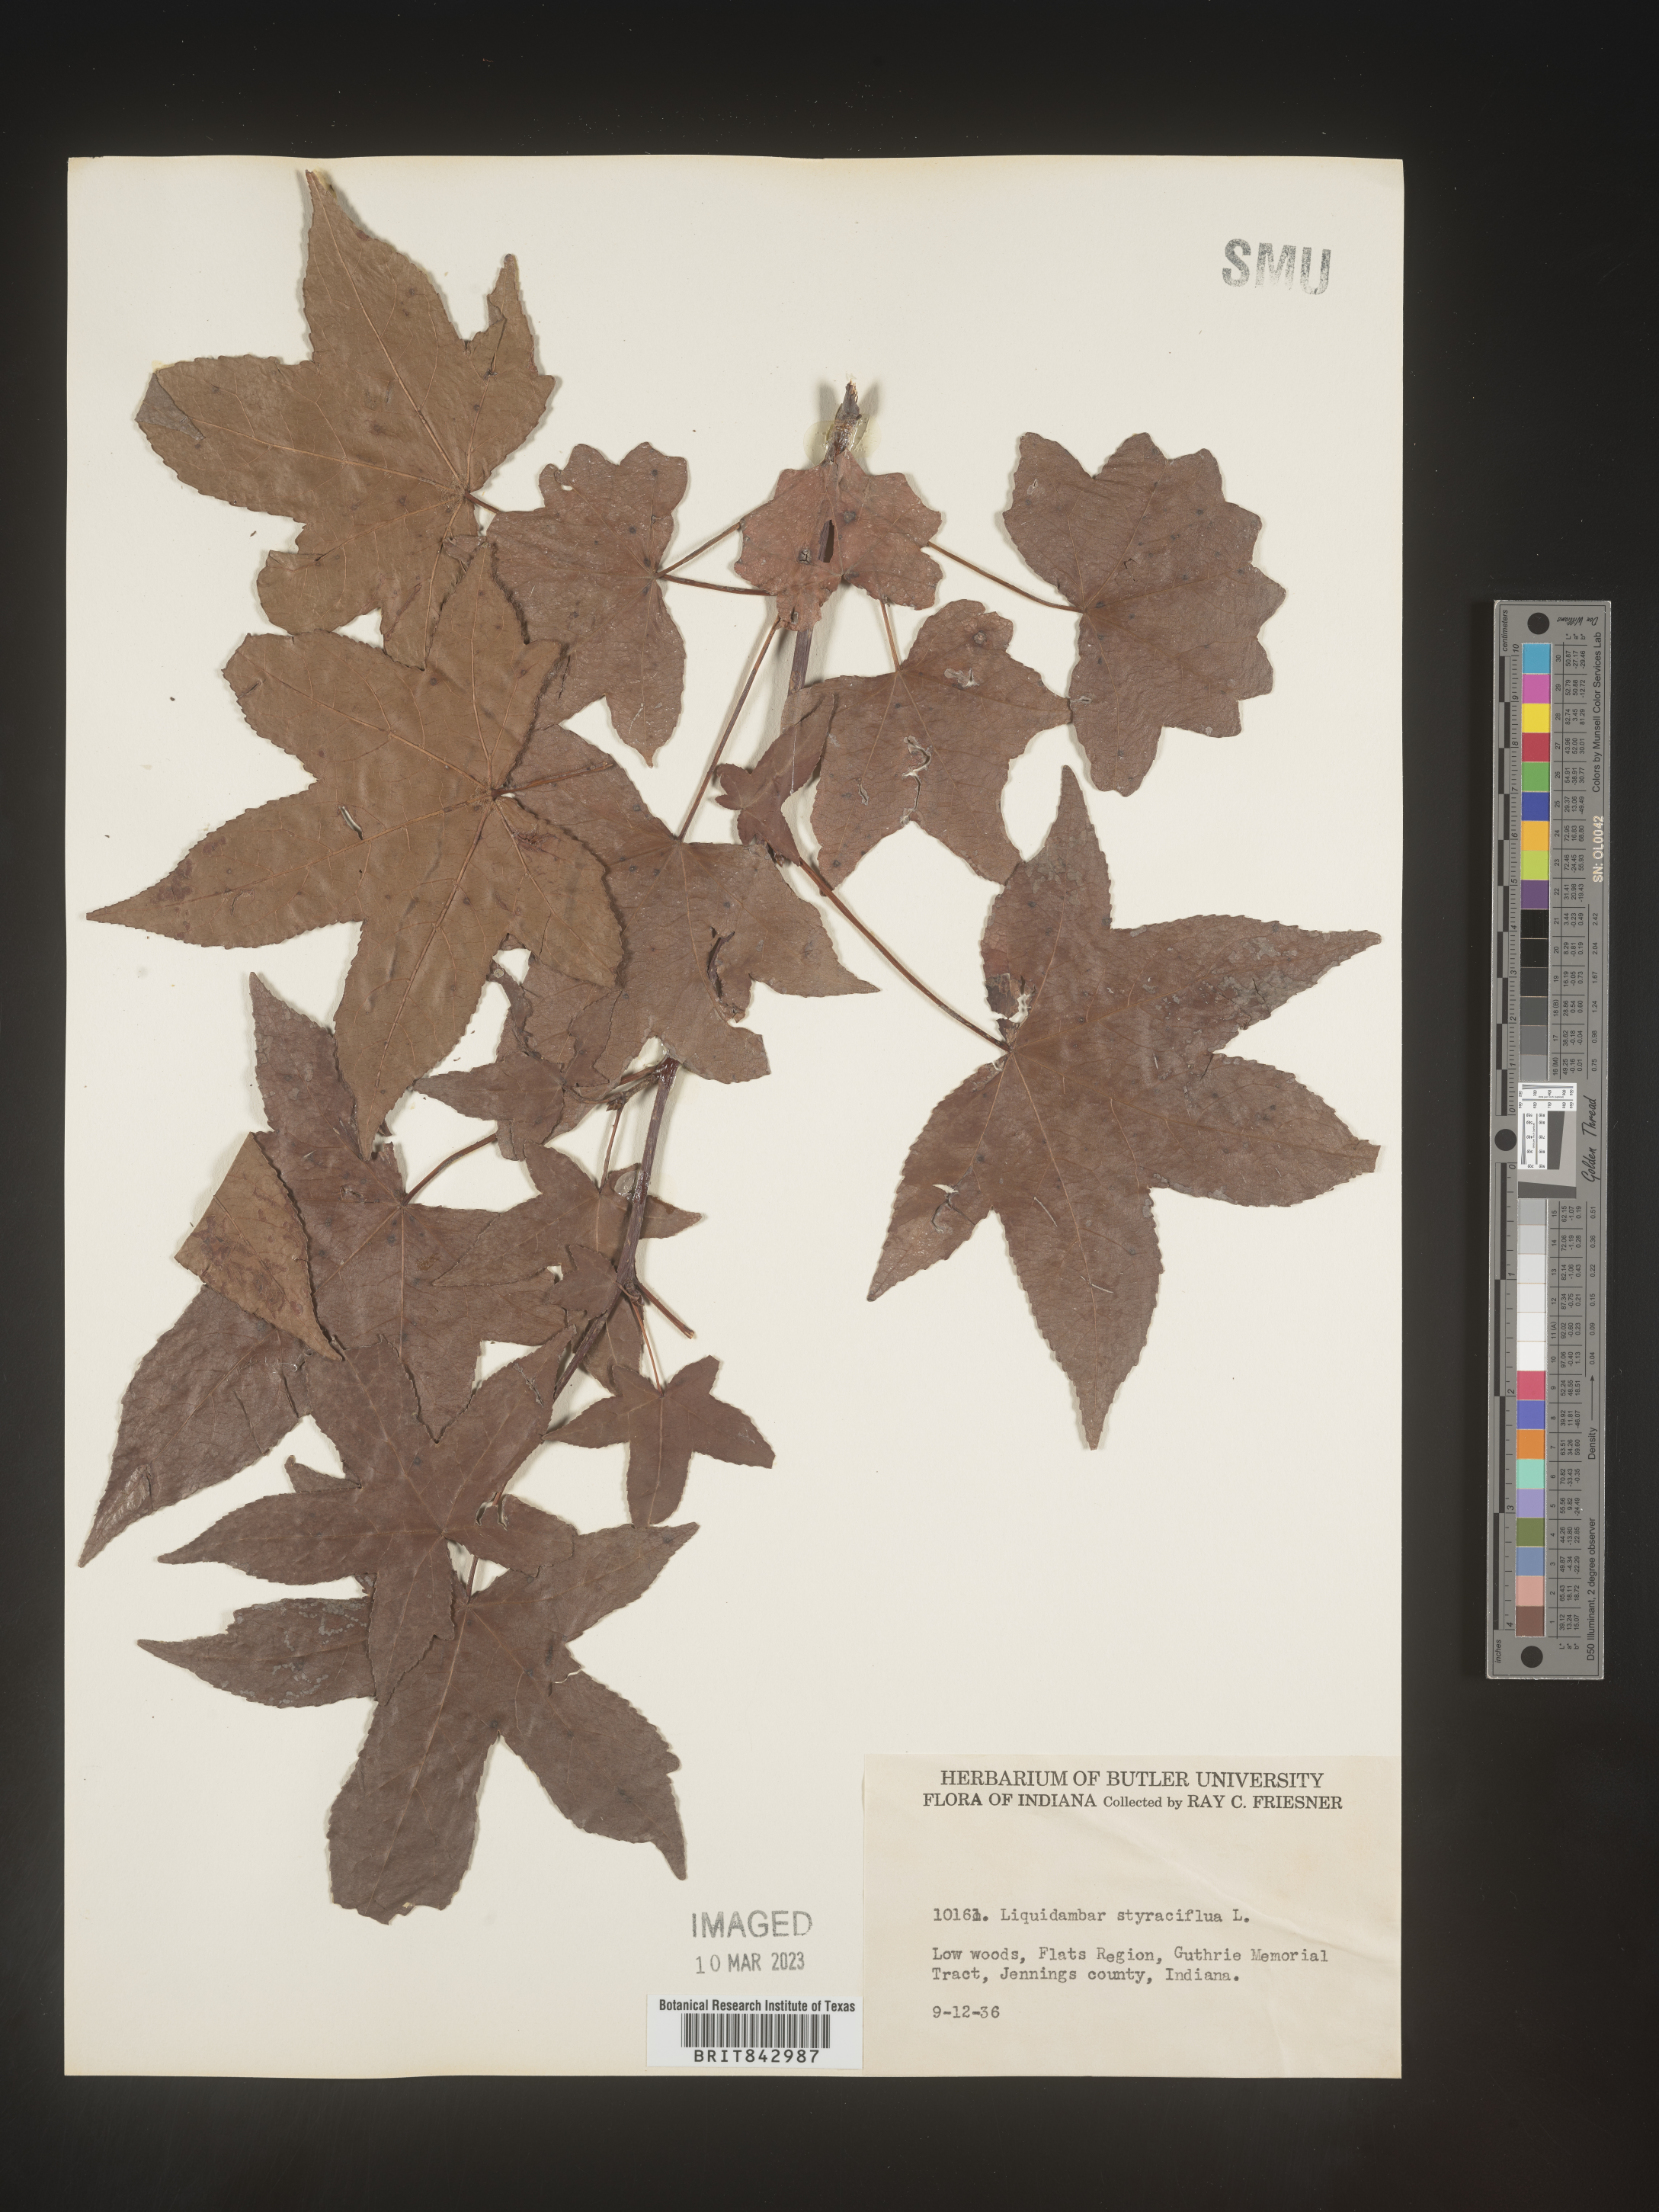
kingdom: Plantae
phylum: Tracheophyta
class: Magnoliopsida
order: Saxifragales
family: Altingiaceae
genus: Liquidambar
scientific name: Liquidambar
